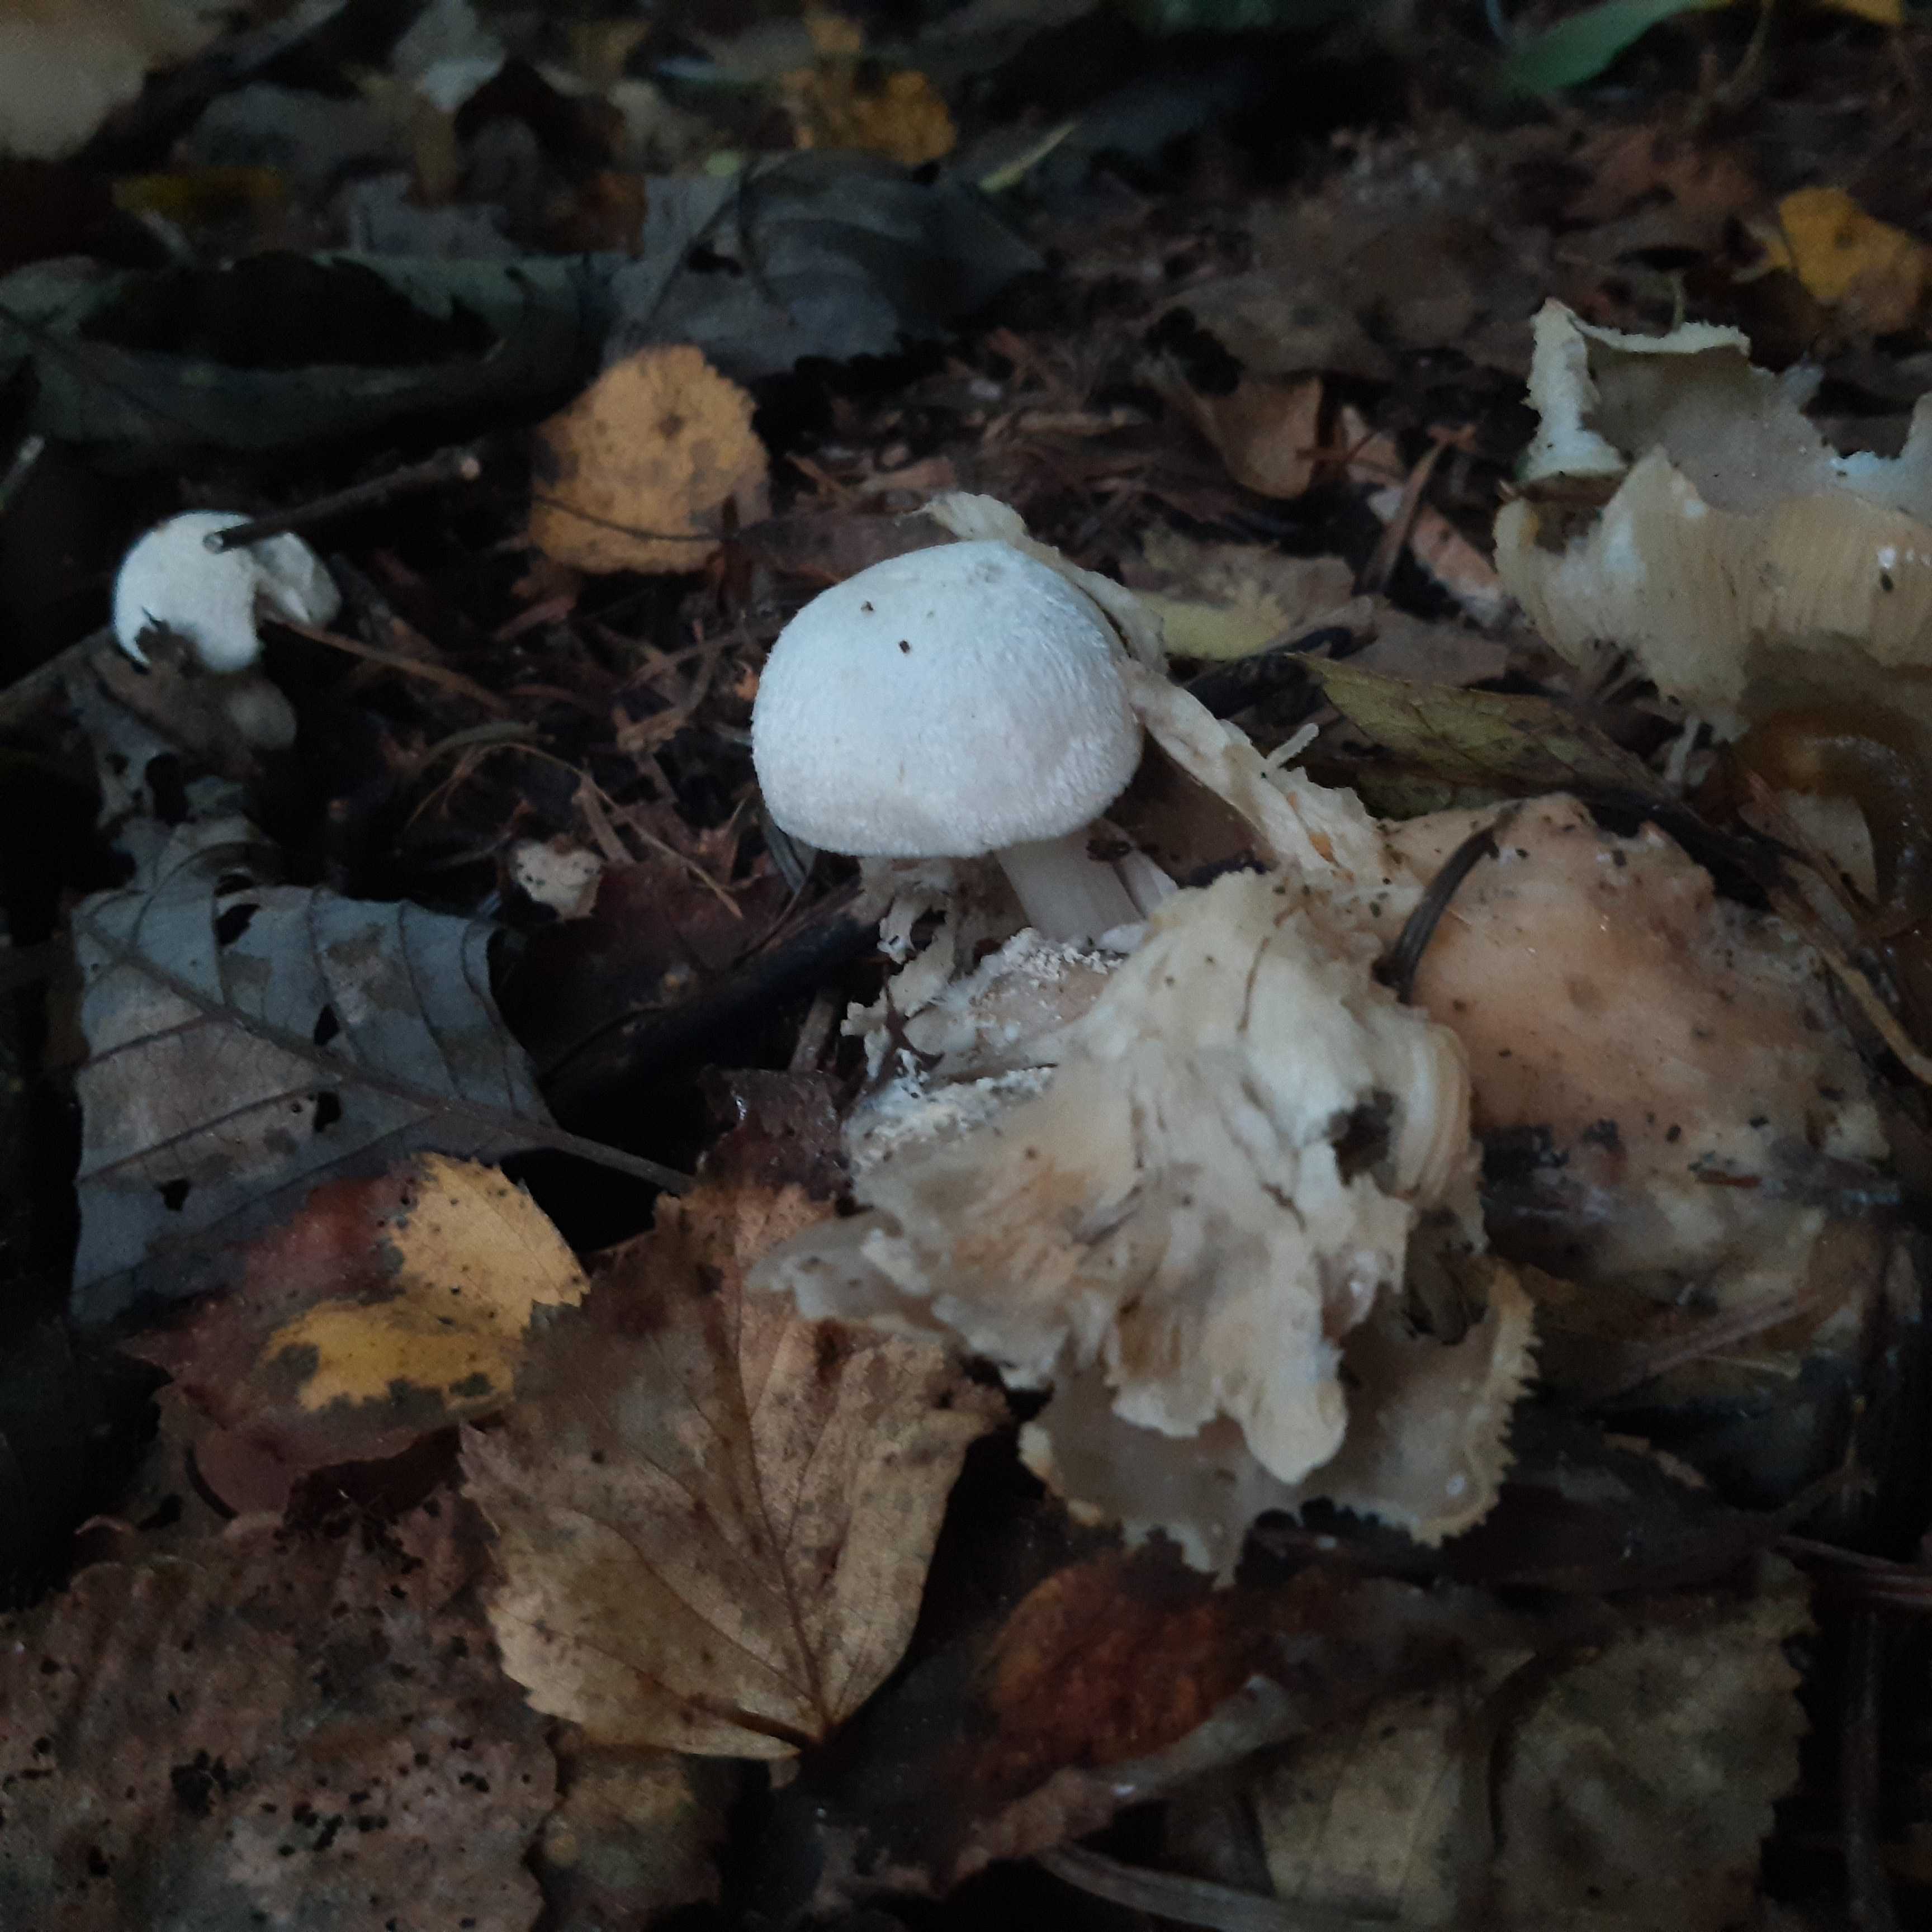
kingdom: Fungi
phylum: Basidiomycota
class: Agaricomycetes
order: Agaricales
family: Pluteaceae
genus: Volvariella
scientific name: Volvariella surrecta
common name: snyltende posesvamp
